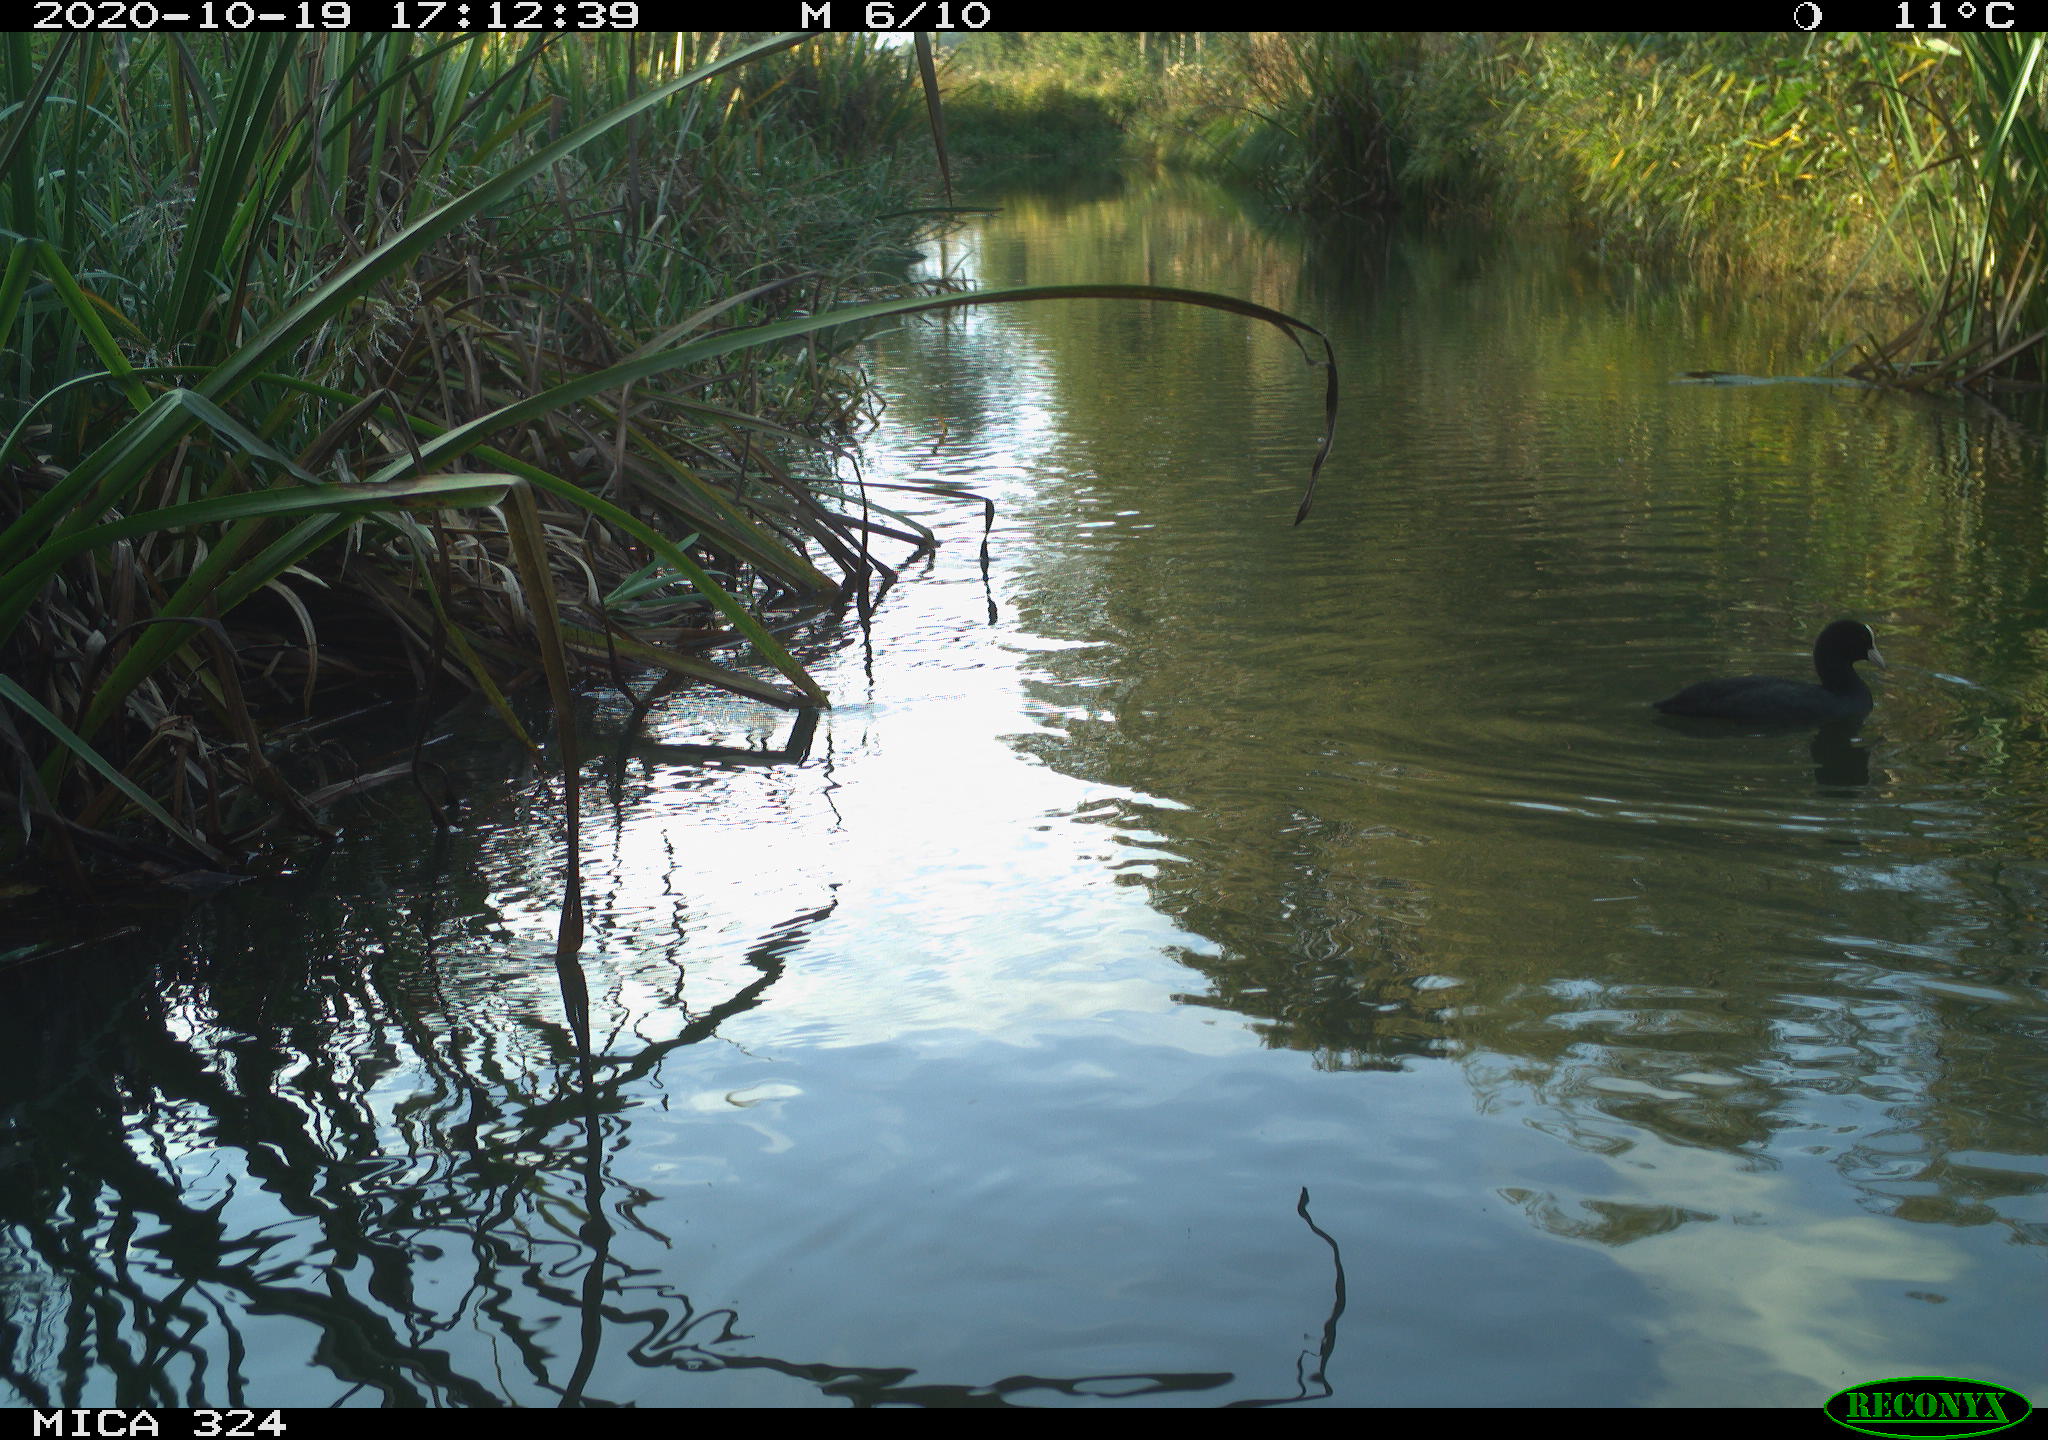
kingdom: Animalia
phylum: Chordata
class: Aves
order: Gruiformes
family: Rallidae
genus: Fulica
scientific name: Fulica atra
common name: Eurasian coot
